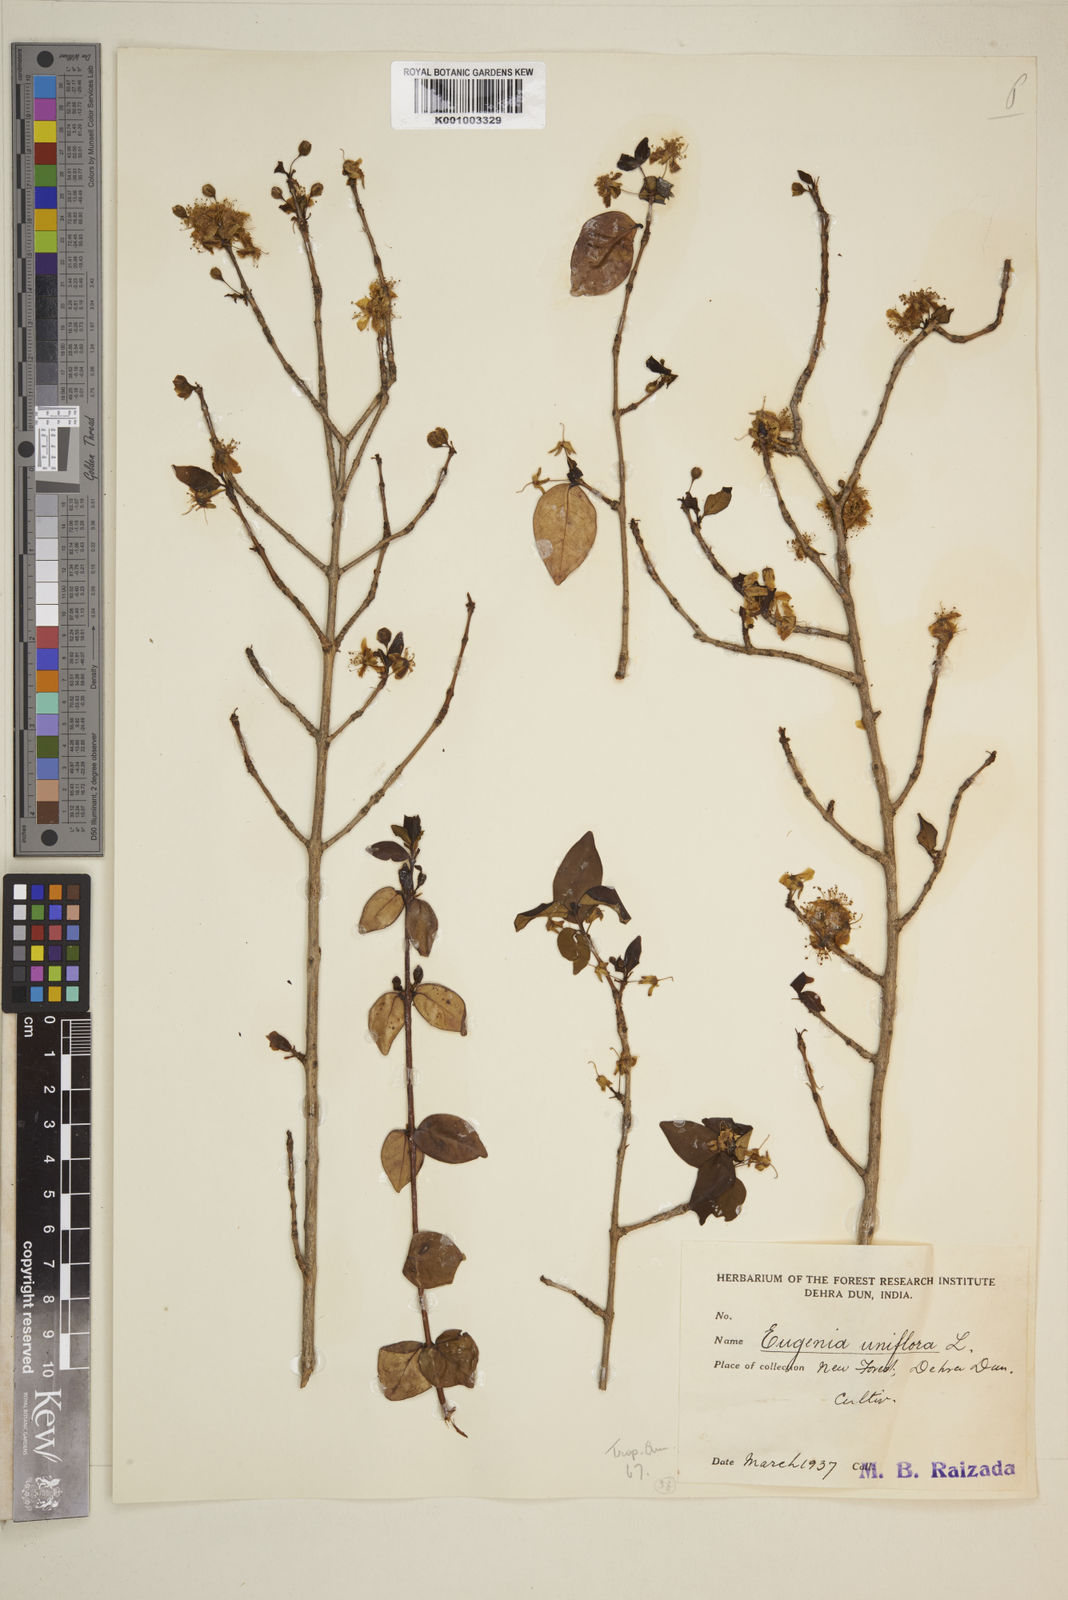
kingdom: Plantae
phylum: Tracheophyta
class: Magnoliopsida
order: Myrtales
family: Myrtaceae
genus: Eugenia
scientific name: Eugenia uniflora
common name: Surinam cherry
